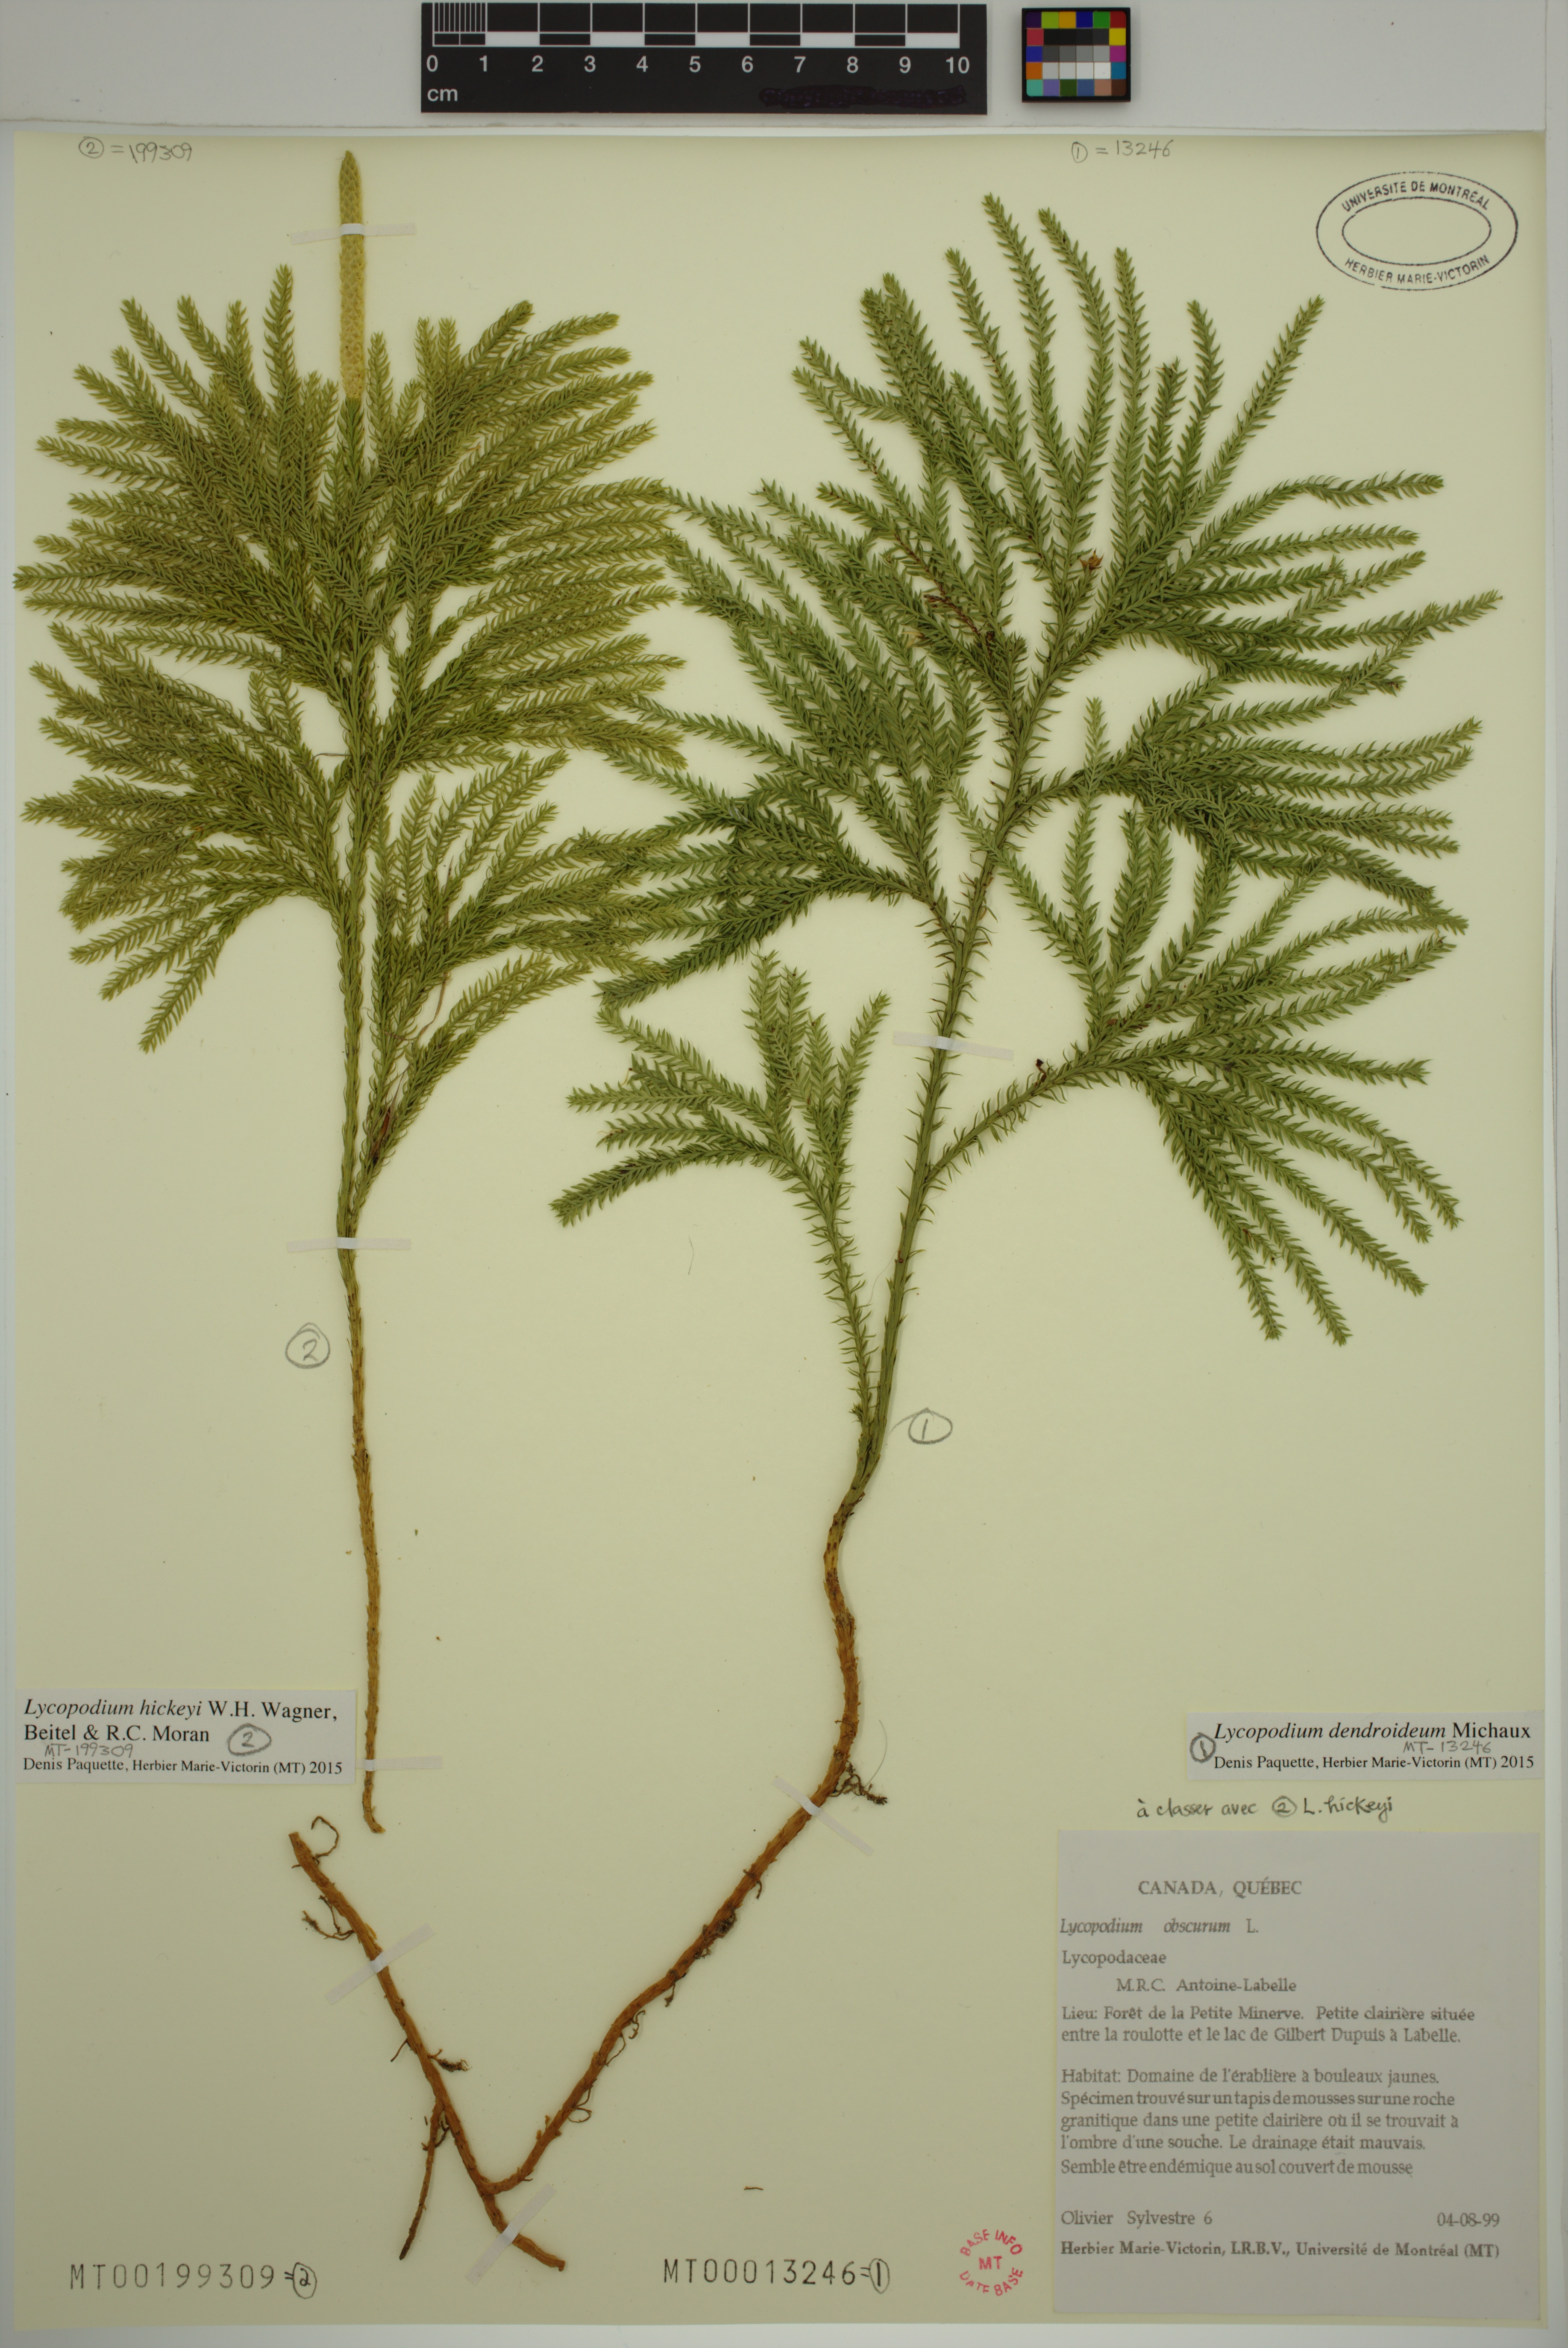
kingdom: Plantae
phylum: Tracheophyta
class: Lycopodiopsida
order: Lycopodiales
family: Lycopodiaceae
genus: Dendrolycopodium
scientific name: Dendrolycopodium dendroideum
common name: Northern tree-clubmoss
